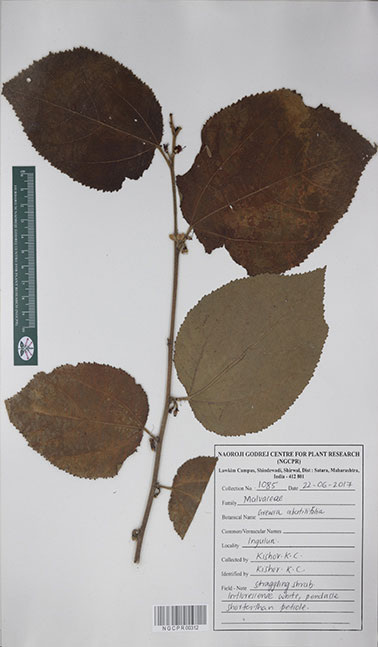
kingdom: Plantae
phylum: Tracheophyta
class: Magnoliopsida
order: Malvales
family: Malvaceae
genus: Grewia
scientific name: Grewia abutilifolia
